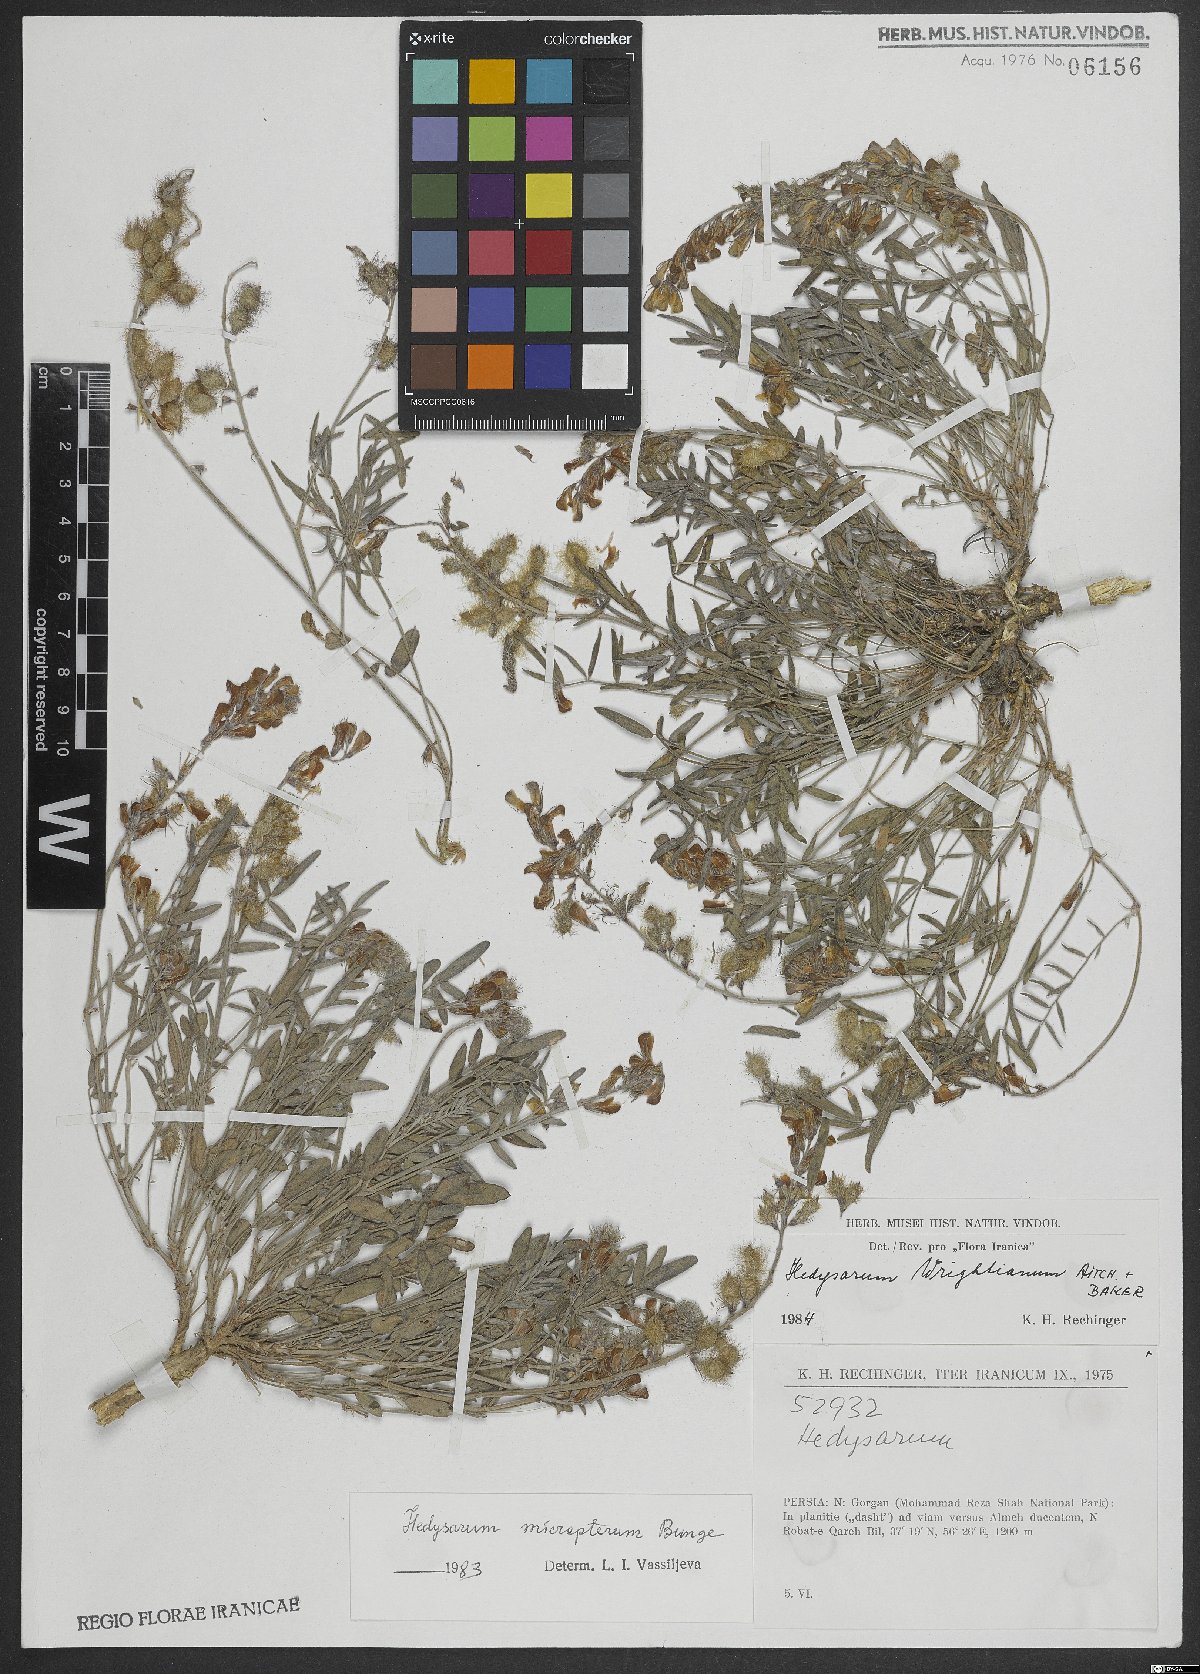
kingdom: Plantae
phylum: Tracheophyta
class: Magnoliopsida
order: Fabales
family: Fabaceae
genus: Hedysarum
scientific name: Hedysarum micropterum
